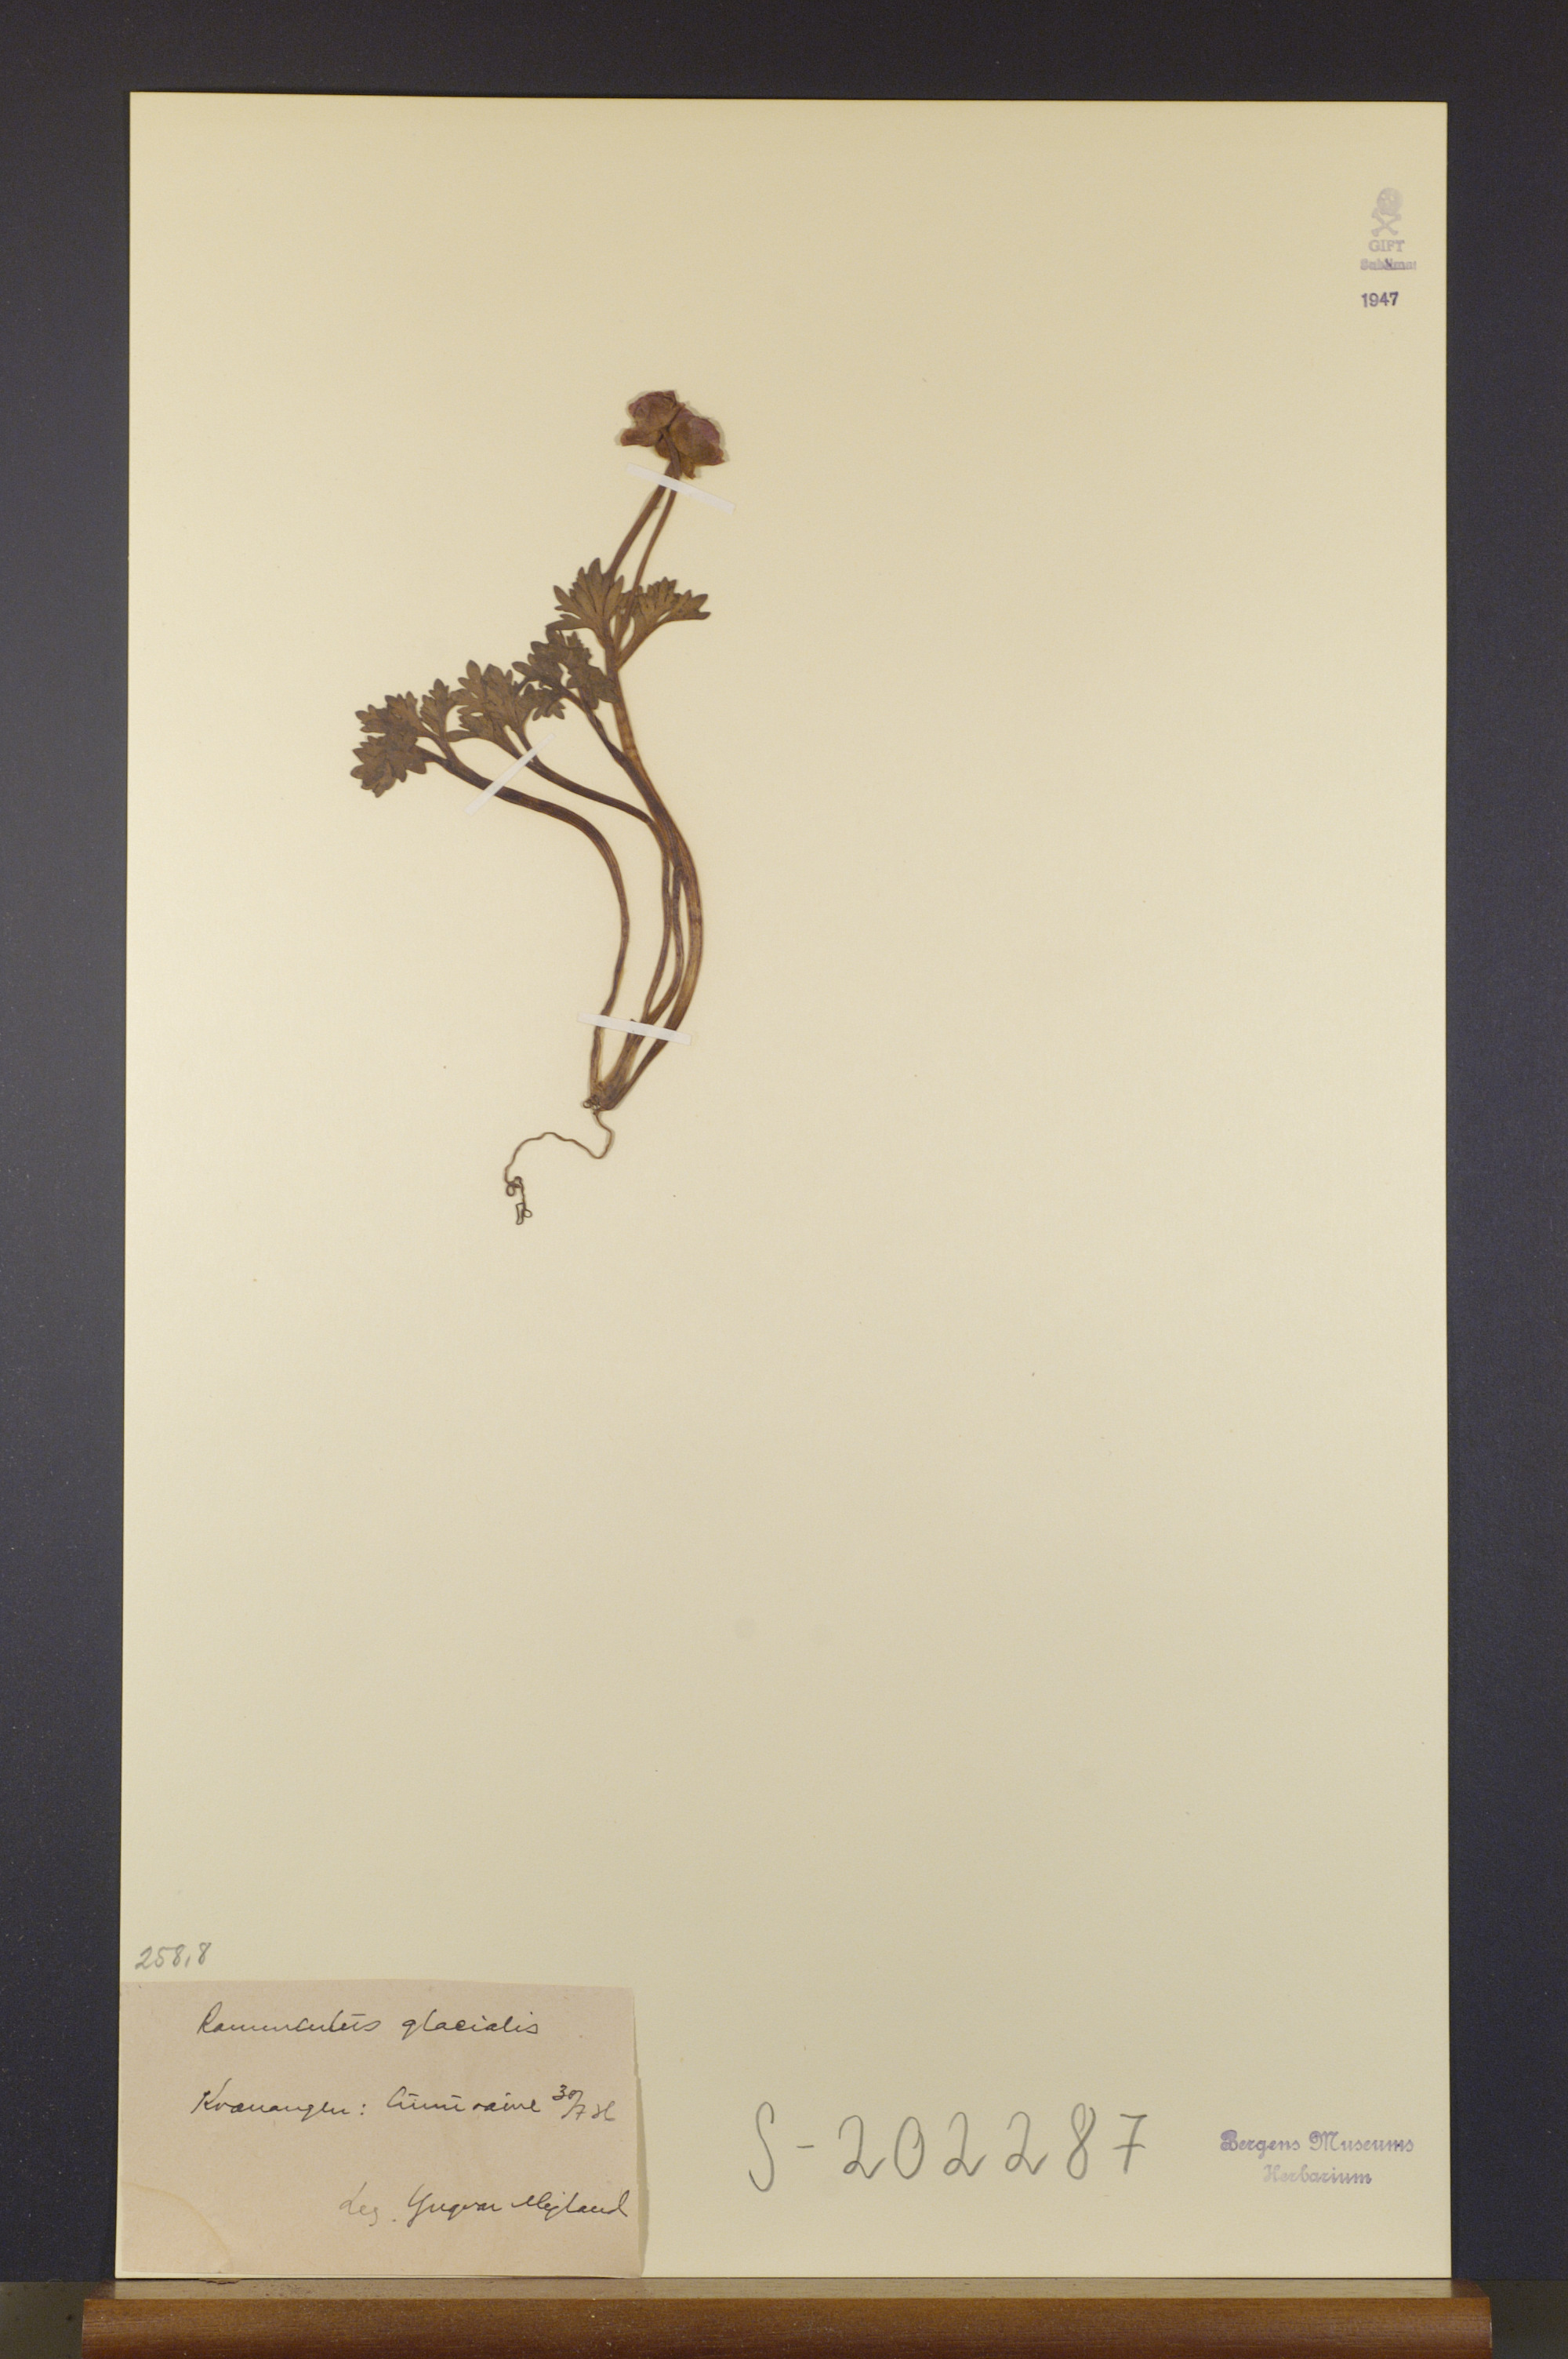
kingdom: Plantae
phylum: Tracheophyta
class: Magnoliopsida
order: Ranunculales
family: Ranunculaceae
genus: Ranunculus
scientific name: Ranunculus glacialis
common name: Glacier buttercup
